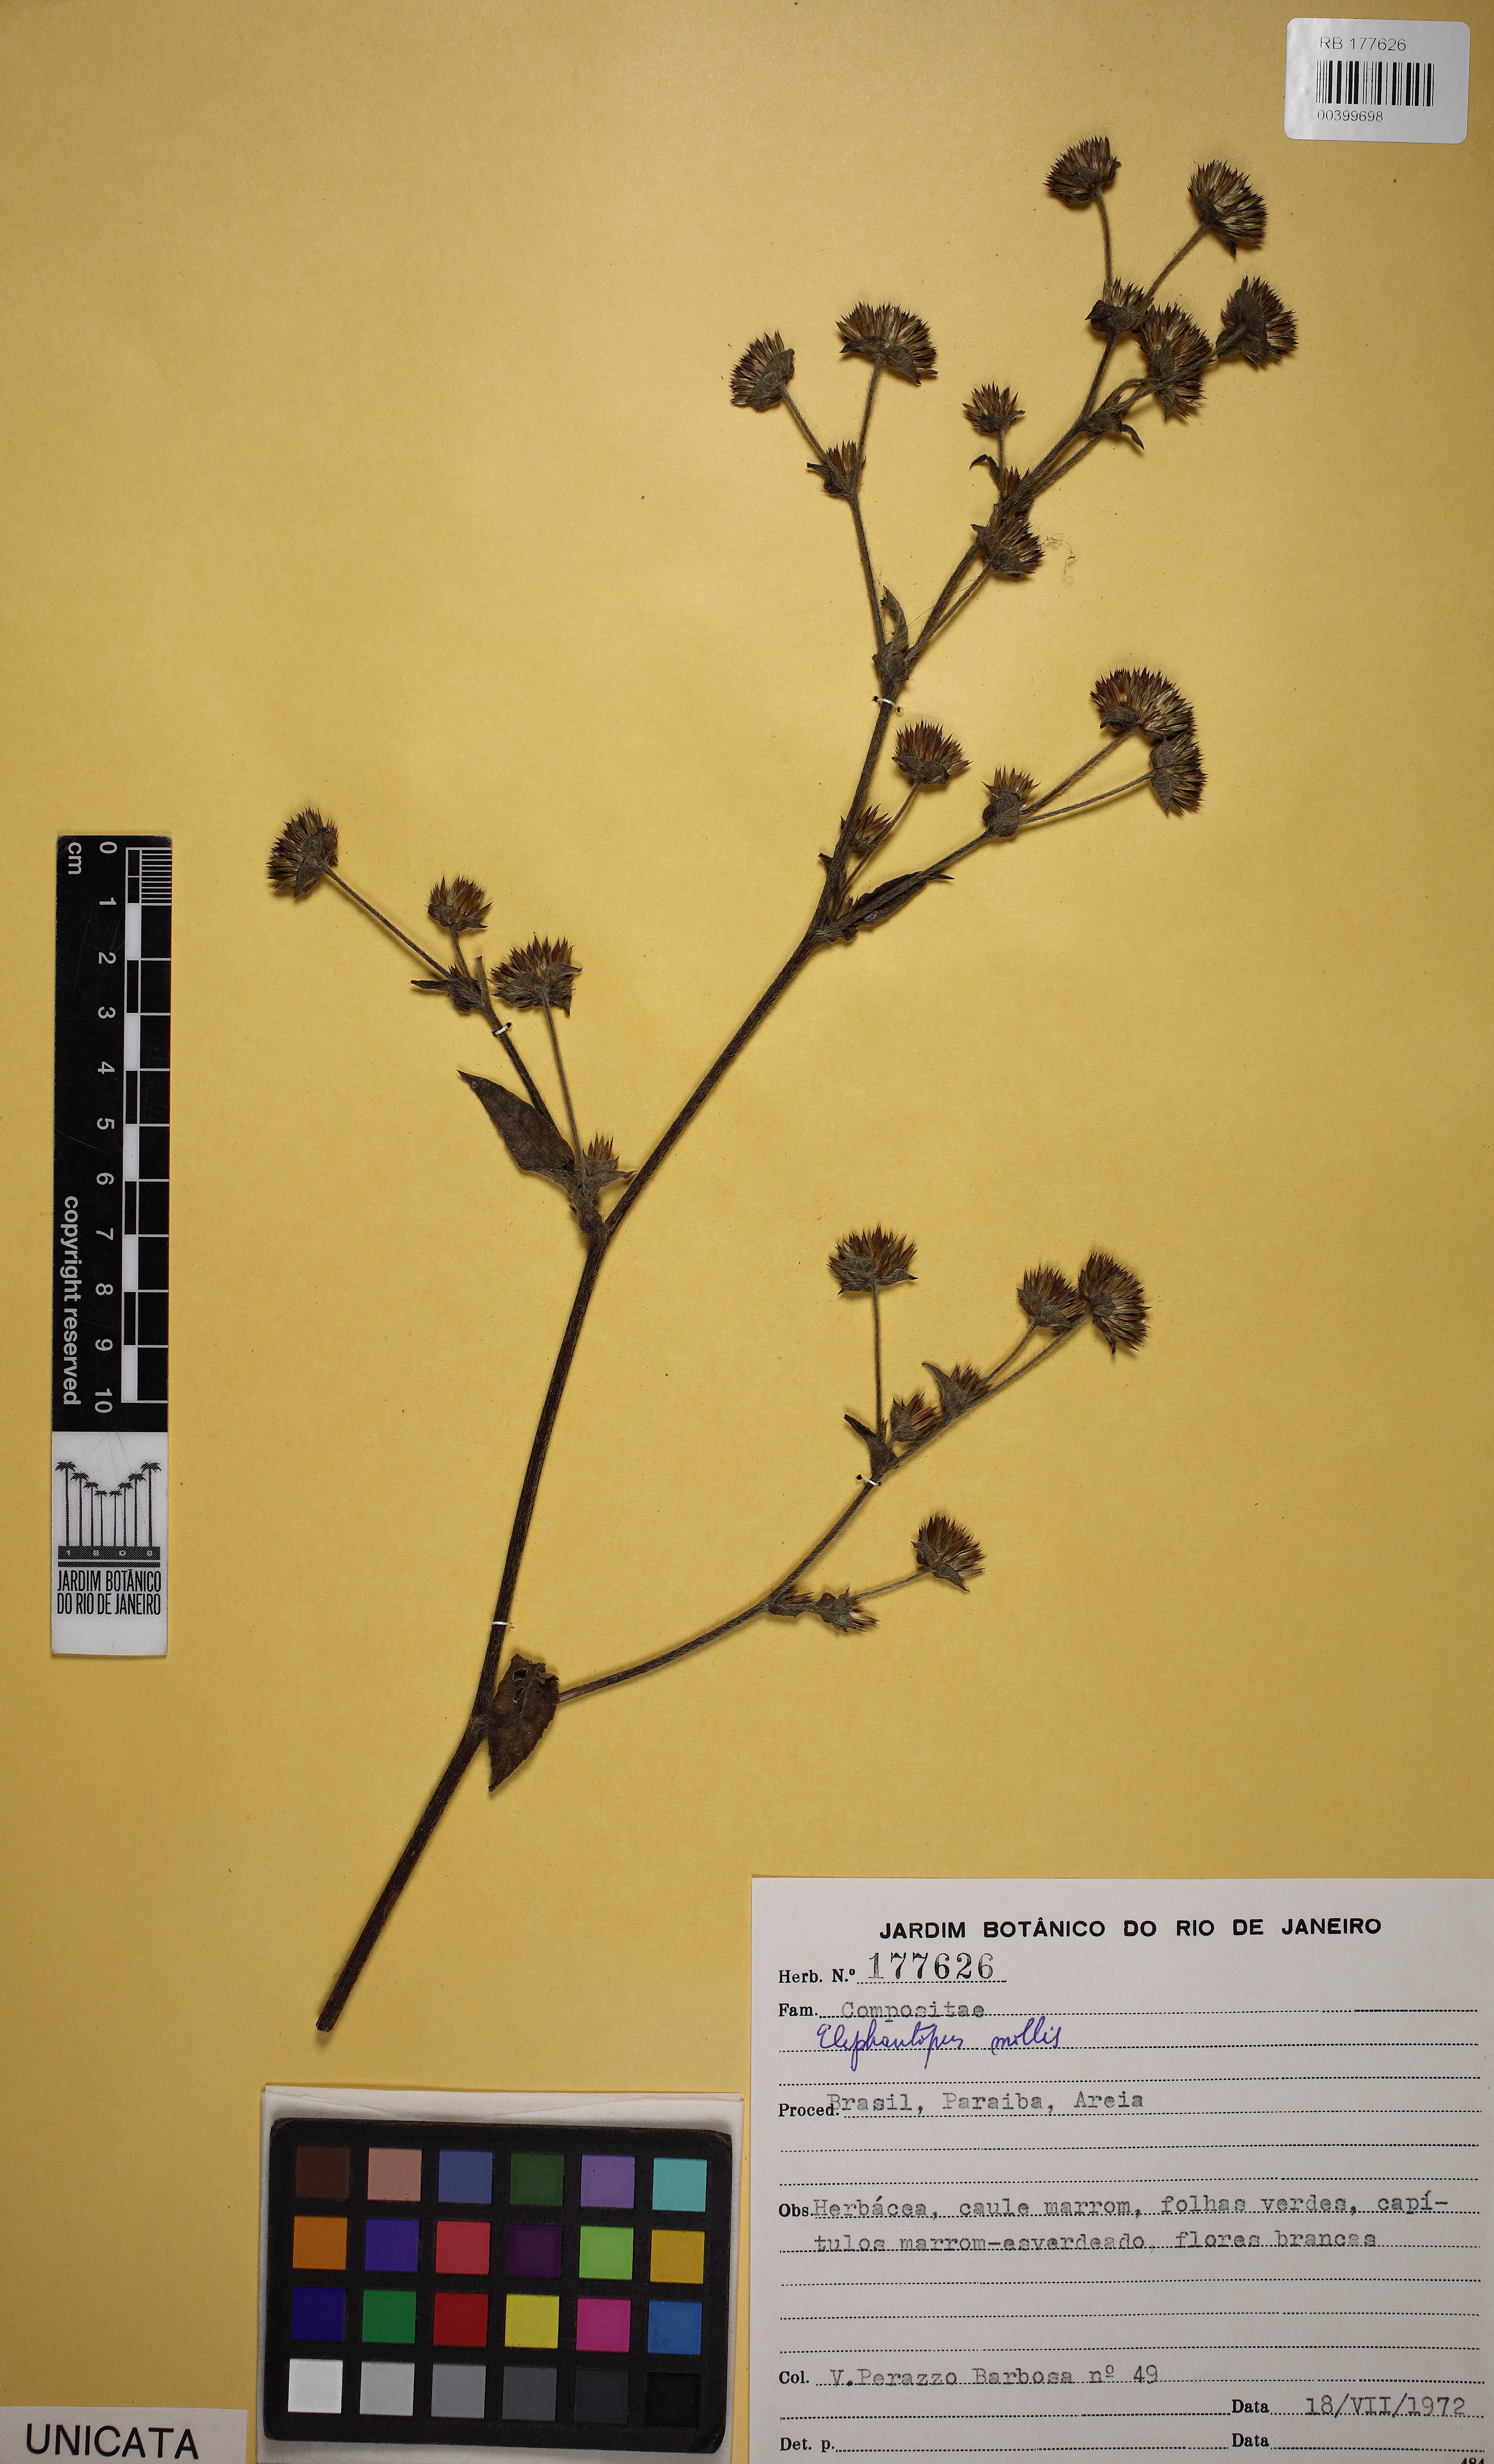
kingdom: Plantae
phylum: Tracheophyta
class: Magnoliopsida
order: Asterales
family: Asteraceae
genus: Elephantopus
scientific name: Elephantopus mollis
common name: Soft elephantsfoot
